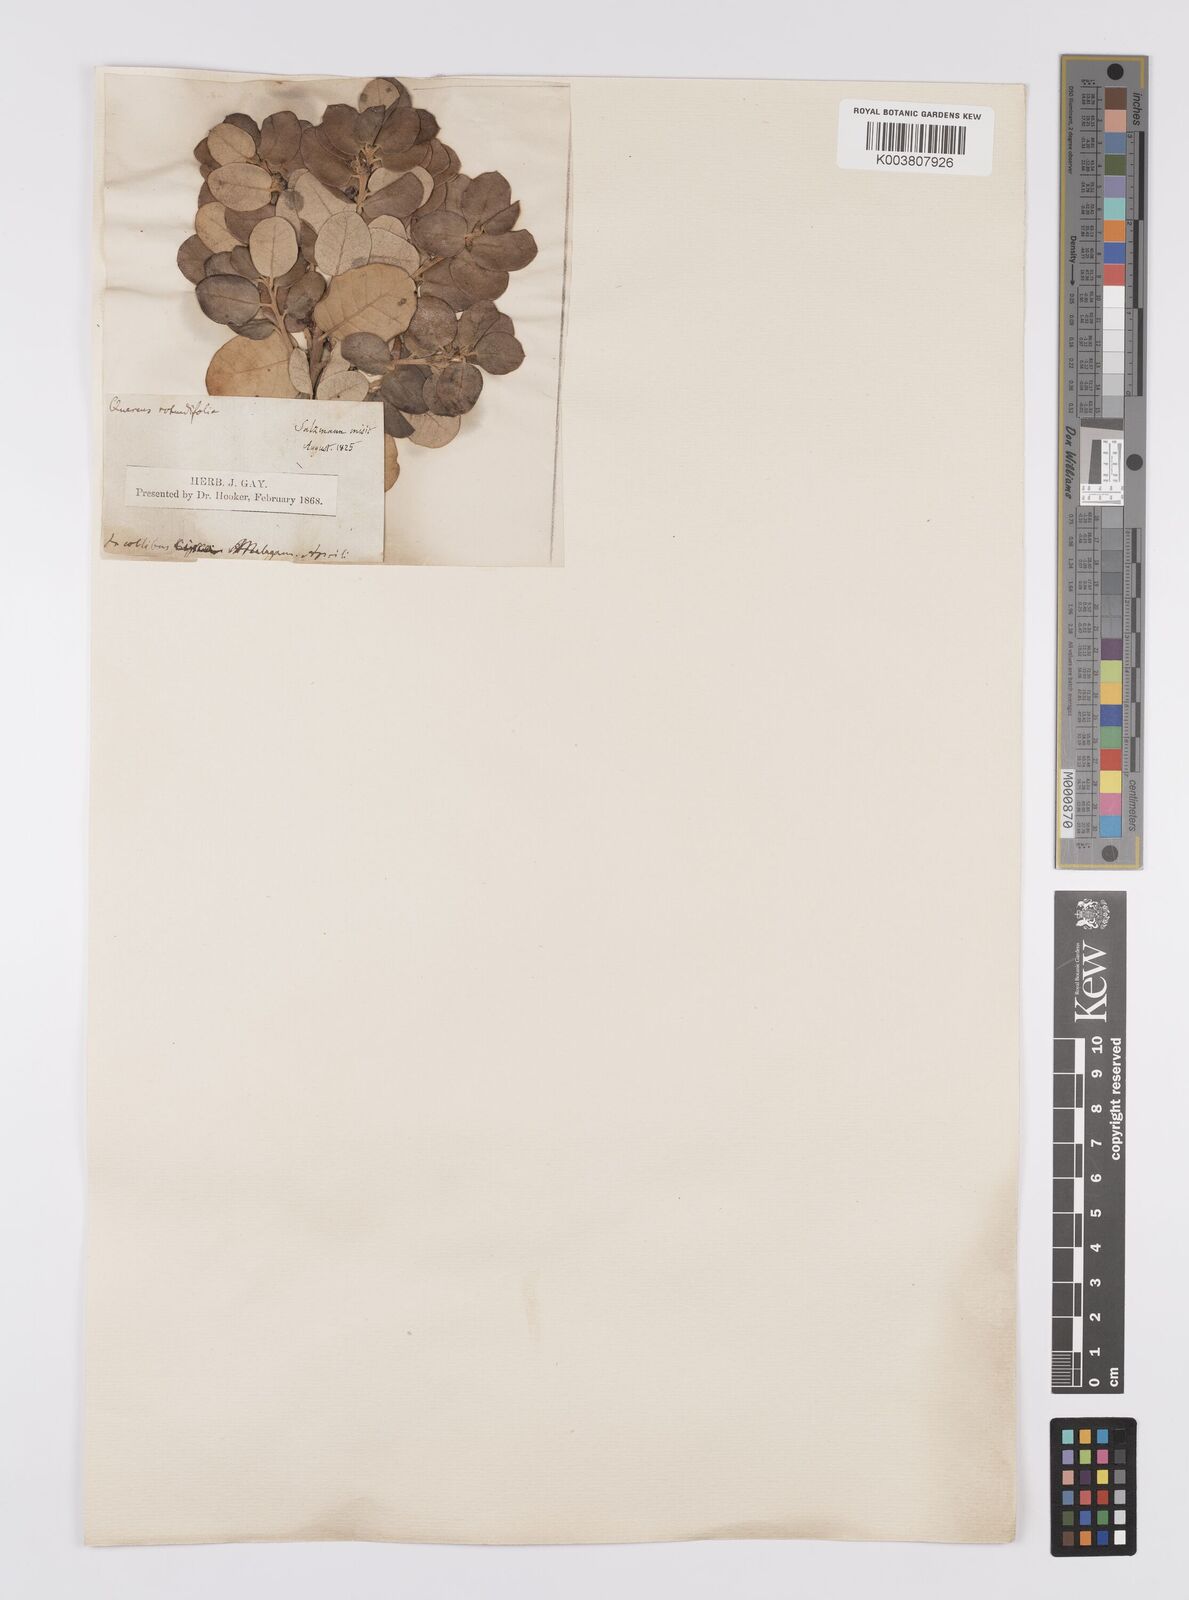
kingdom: Plantae
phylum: Tracheophyta
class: Magnoliopsida
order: Fagales
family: Fagaceae
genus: Quercus
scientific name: Quercus suber
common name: Cork oak
